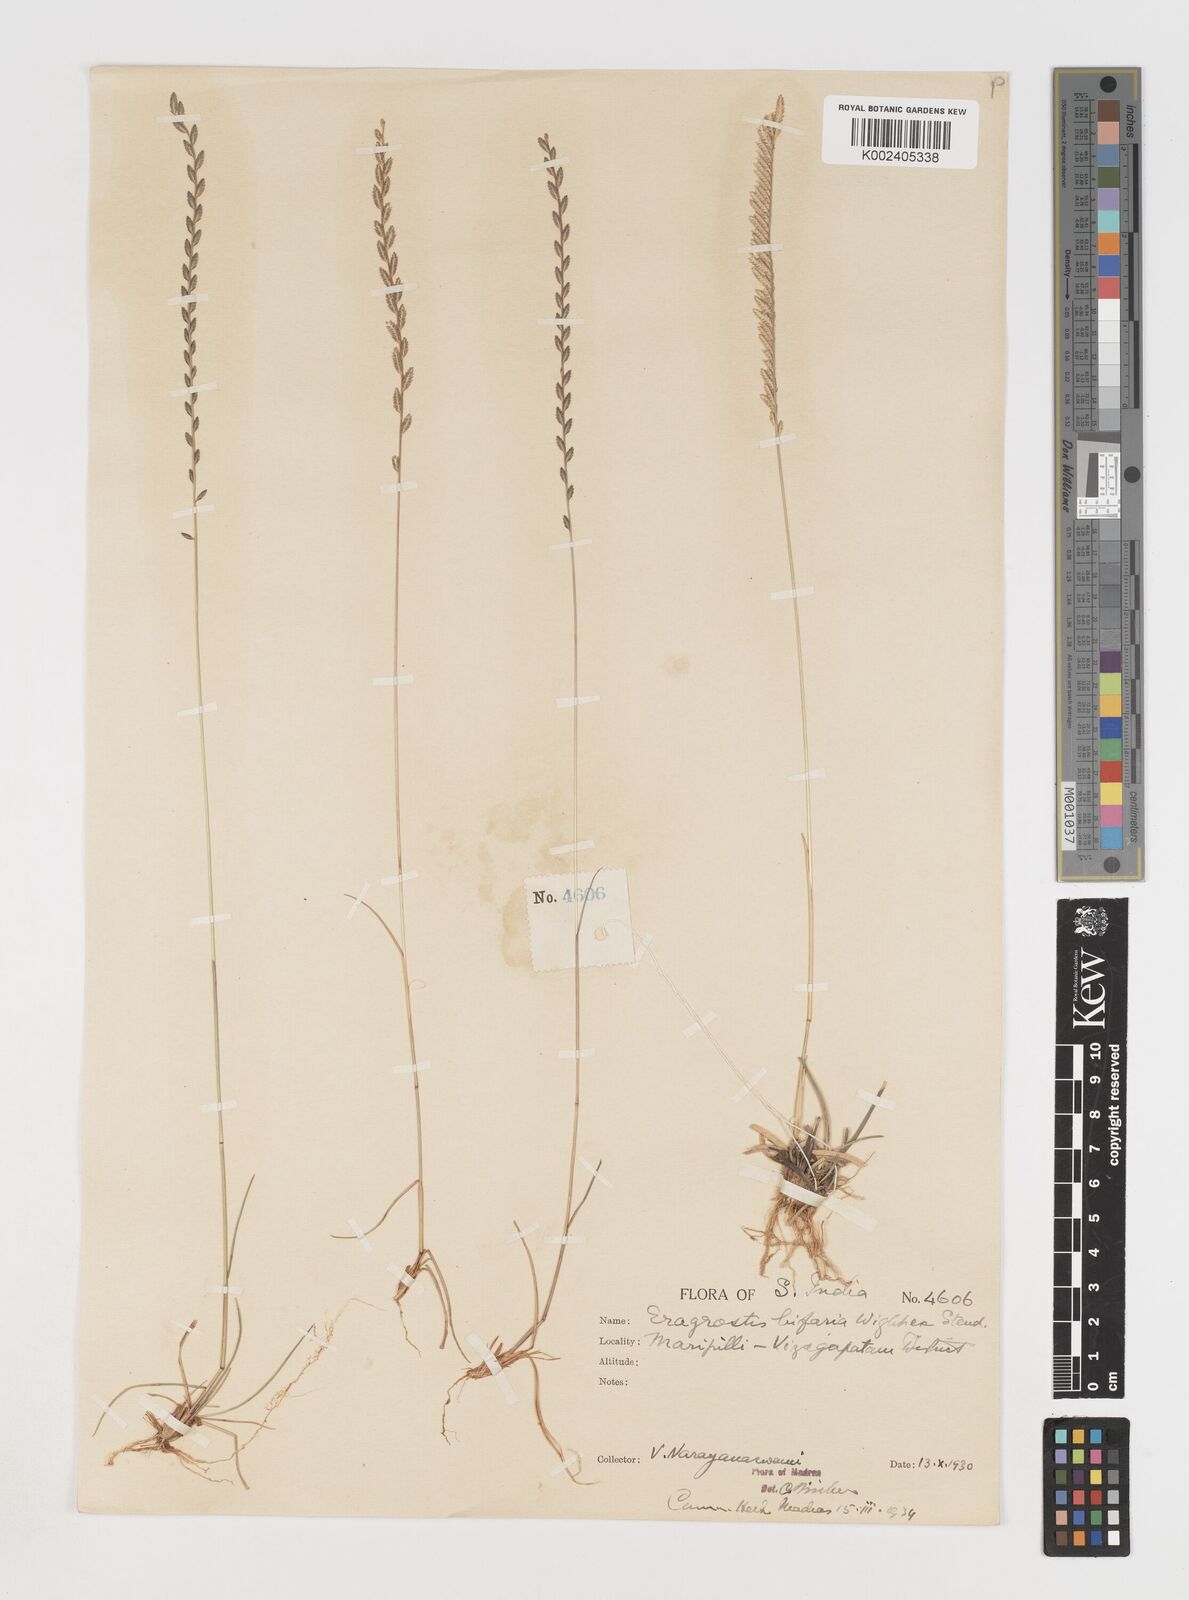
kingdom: Plantae
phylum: Tracheophyta
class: Liliopsida
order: Poales
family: Poaceae
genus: Eragrostiella
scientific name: Eragrostiella bifaria
